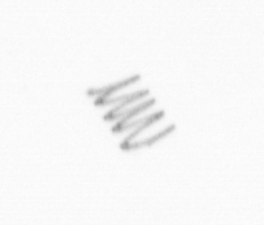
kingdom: Chromista
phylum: Ochrophyta
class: Bacillariophyceae
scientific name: Bacillariophyceae
